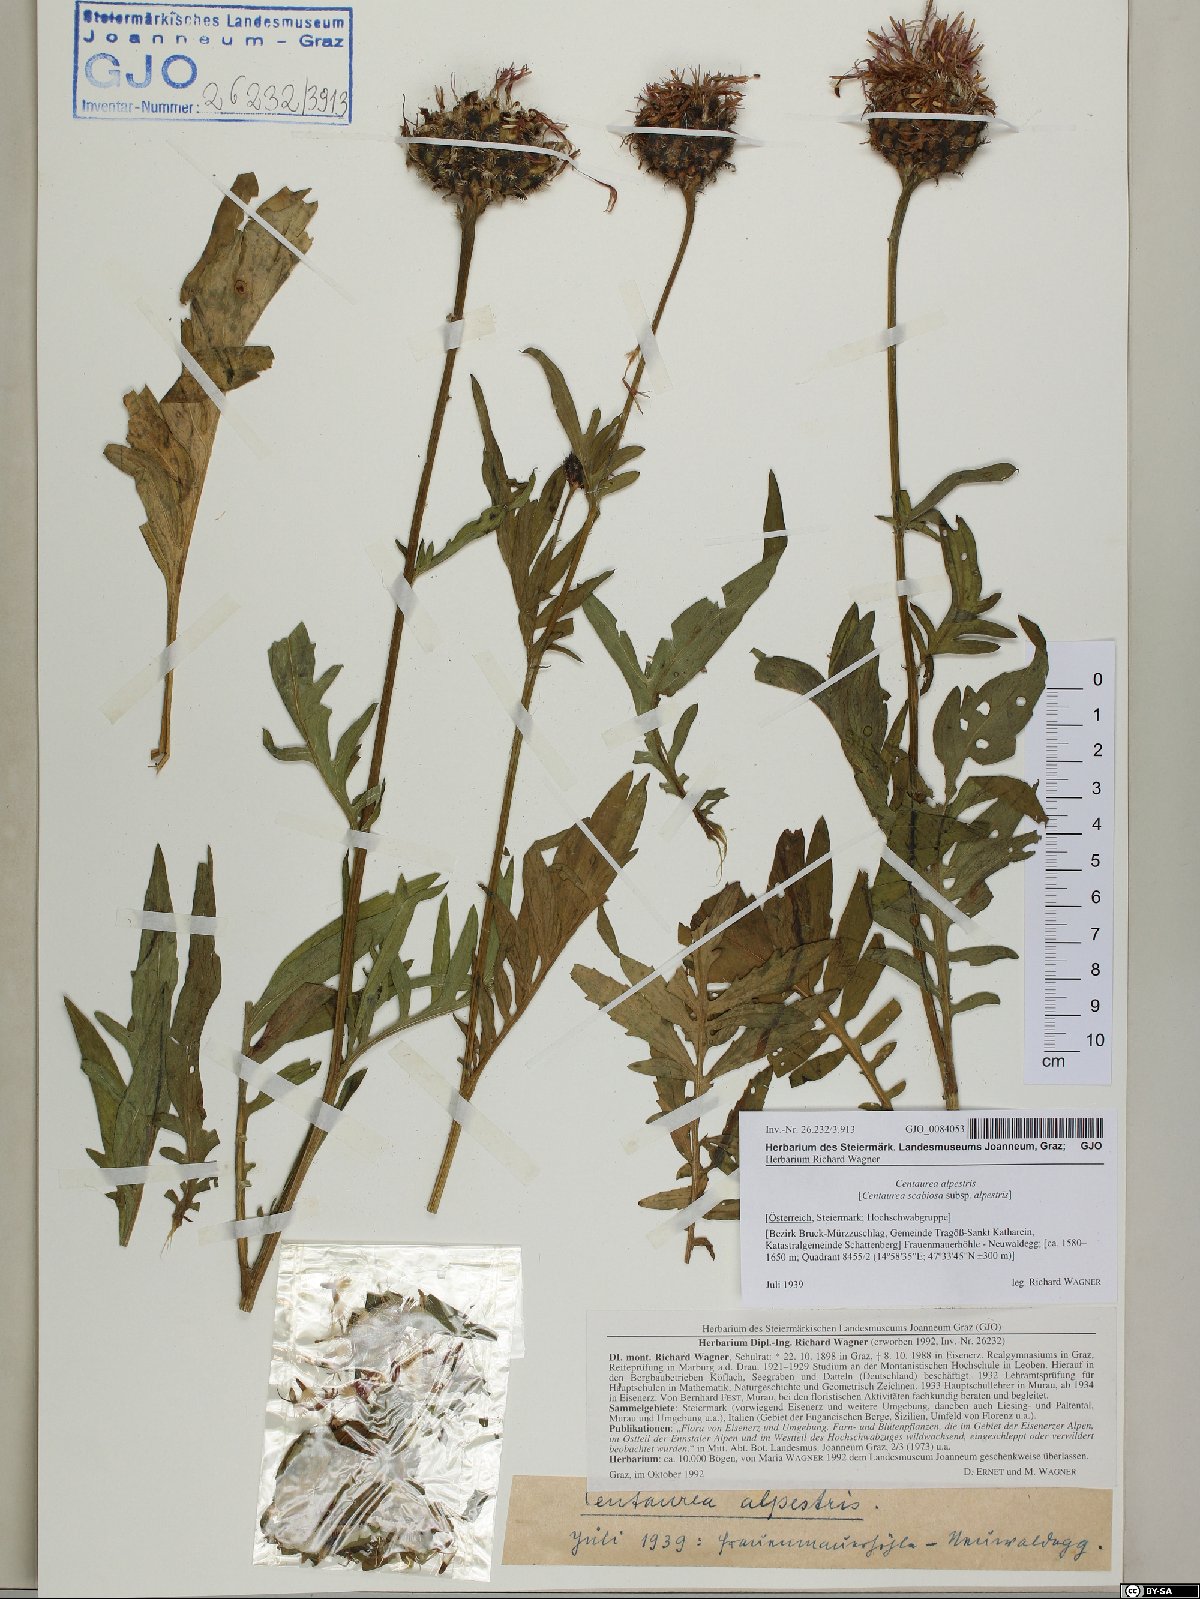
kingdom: Plantae
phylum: Tracheophyta
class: Magnoliopsida
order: Asterales
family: Asteraceae
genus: Centaurea
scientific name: Centaurea scabiosa
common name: Greater knapweed
